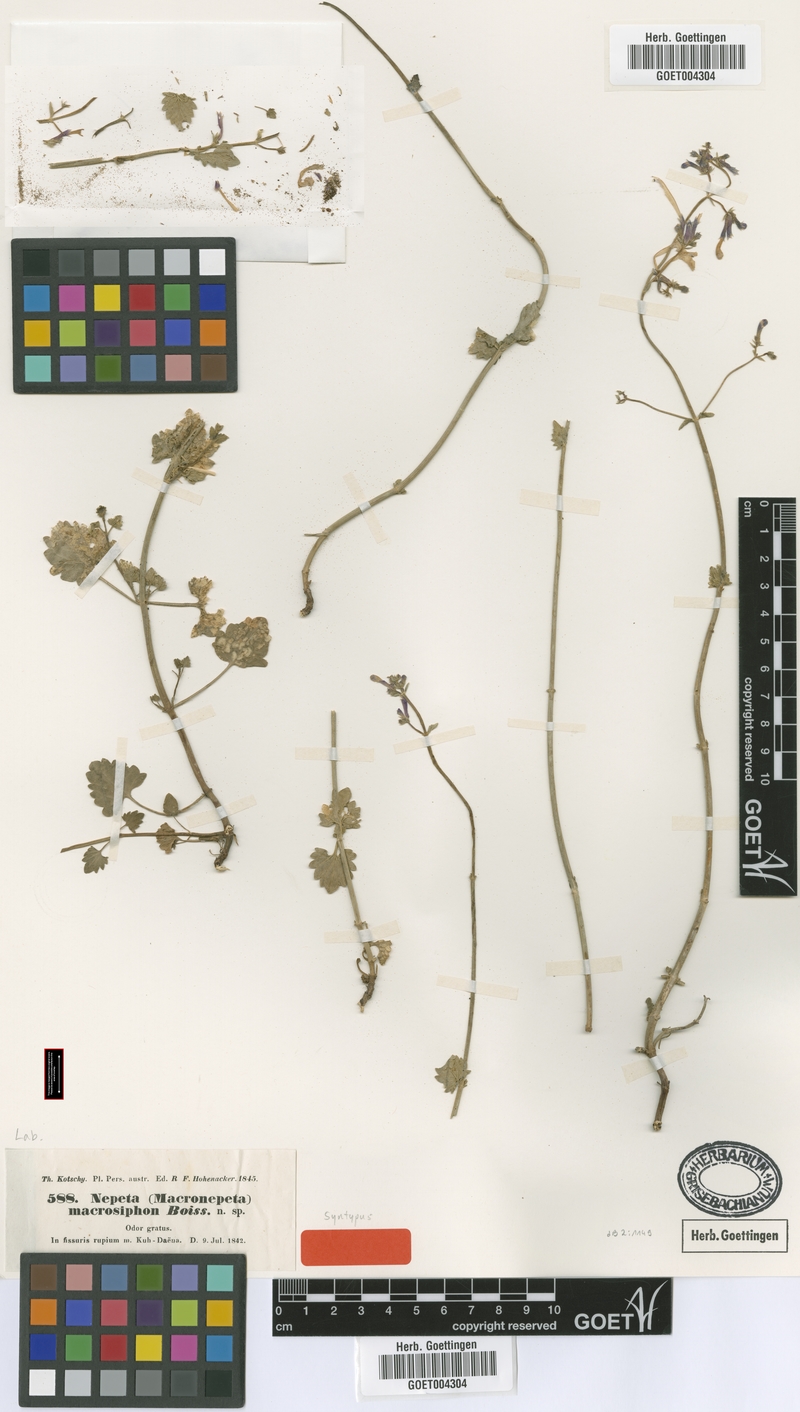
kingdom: Plantae
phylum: Tracheophyta
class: Magnoliopsida
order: Lamiales
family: Lamiaceae
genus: Nepeta
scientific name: Nepeta macrosiphon
